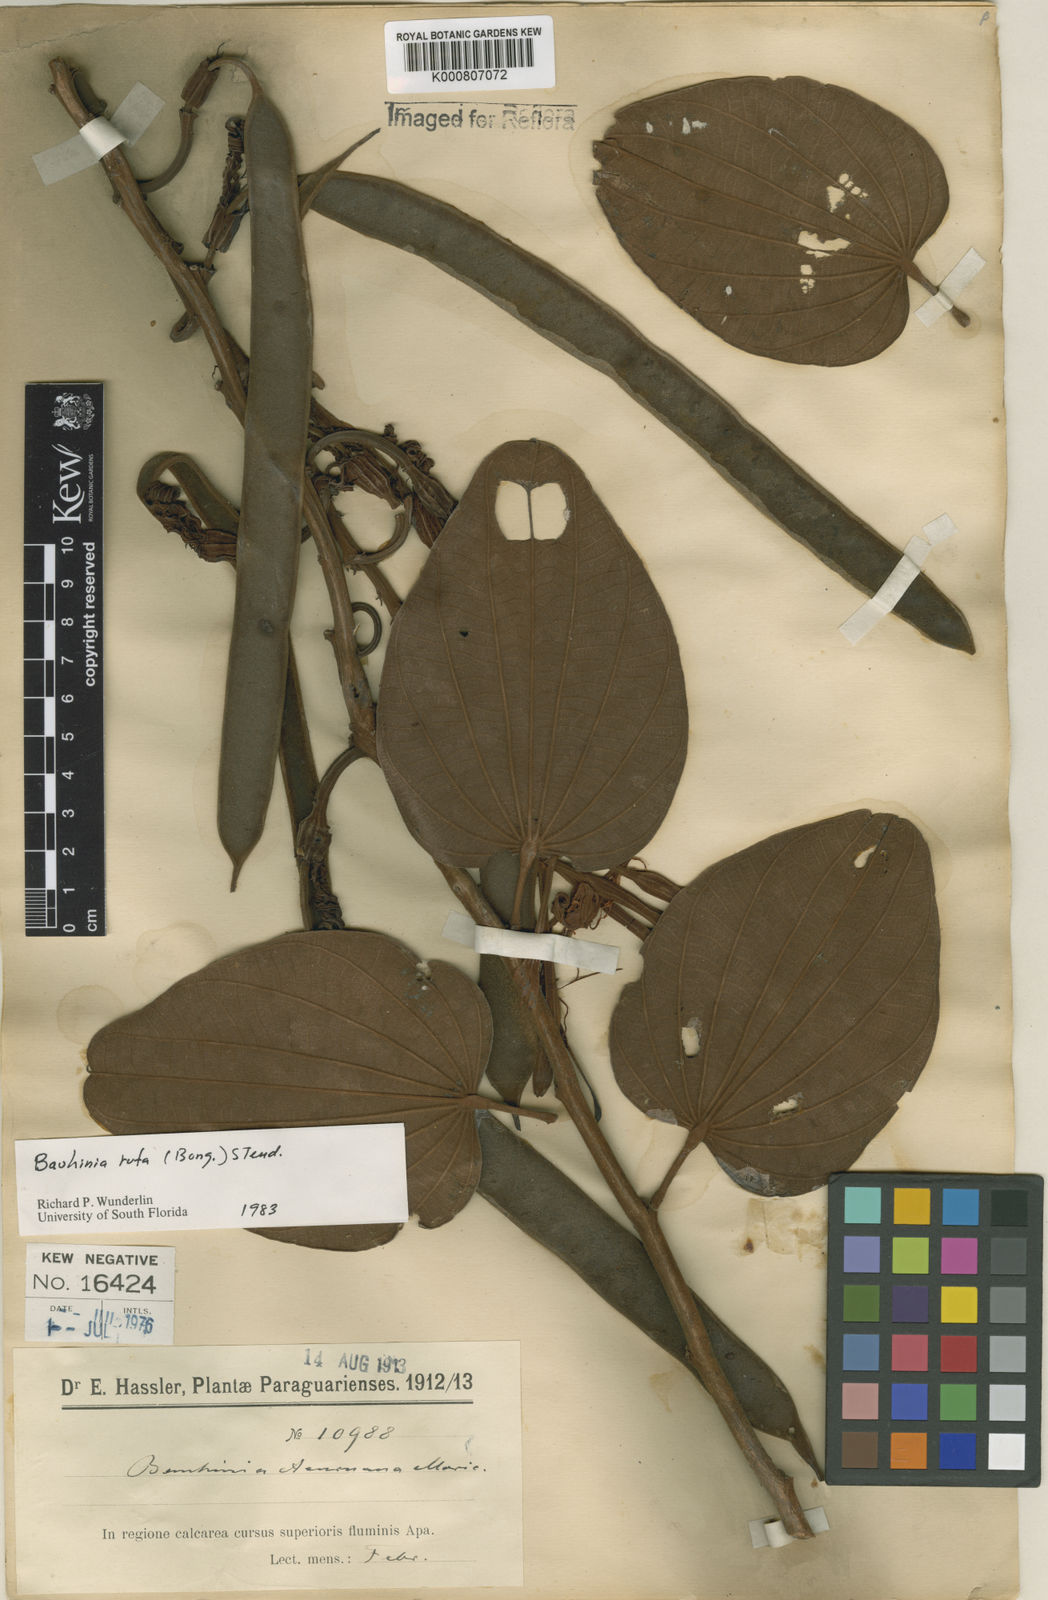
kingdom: Plantae
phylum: Tracheophyta
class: Magnoliopsida
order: Fabales
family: Fabaceae
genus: Bauhinia
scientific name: Bauhinia rufa
